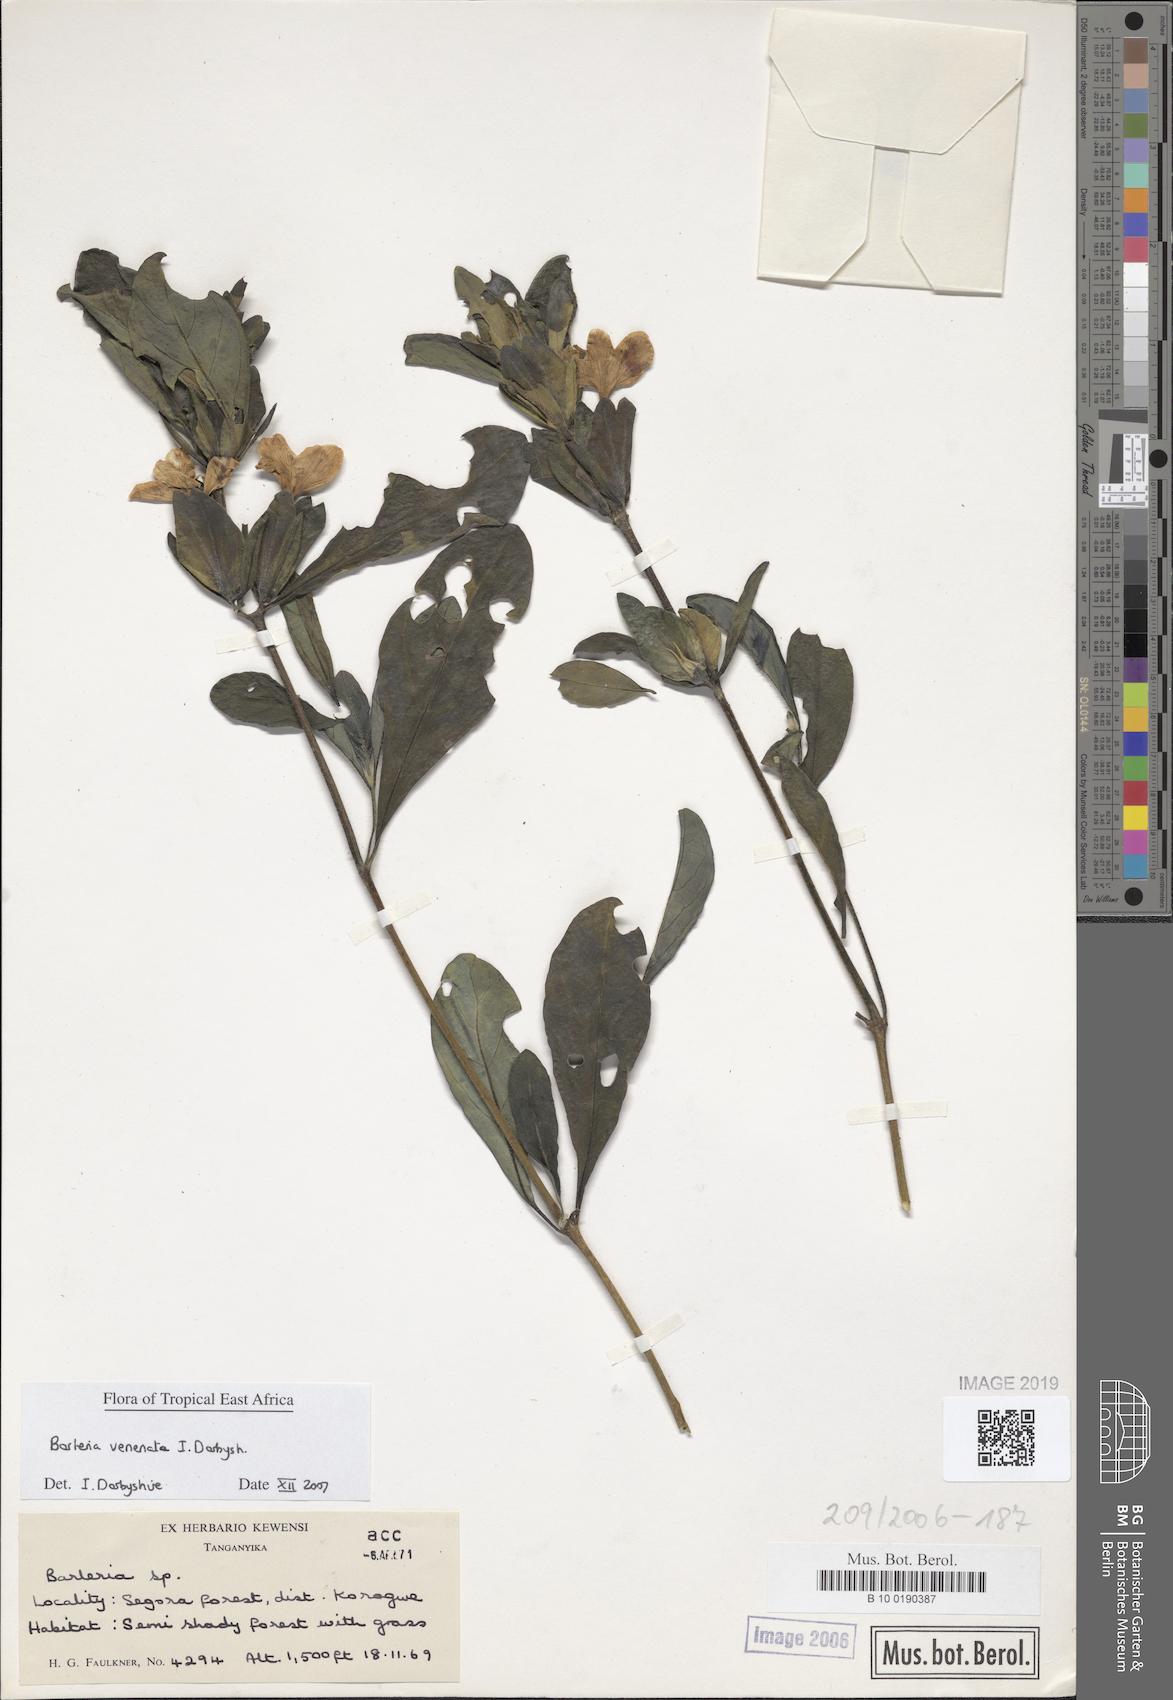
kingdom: Plantae
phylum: Tracheophyta
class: Magnoliopsida
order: Lamiales
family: Acanthaceae
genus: Barleria
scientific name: Barleria
